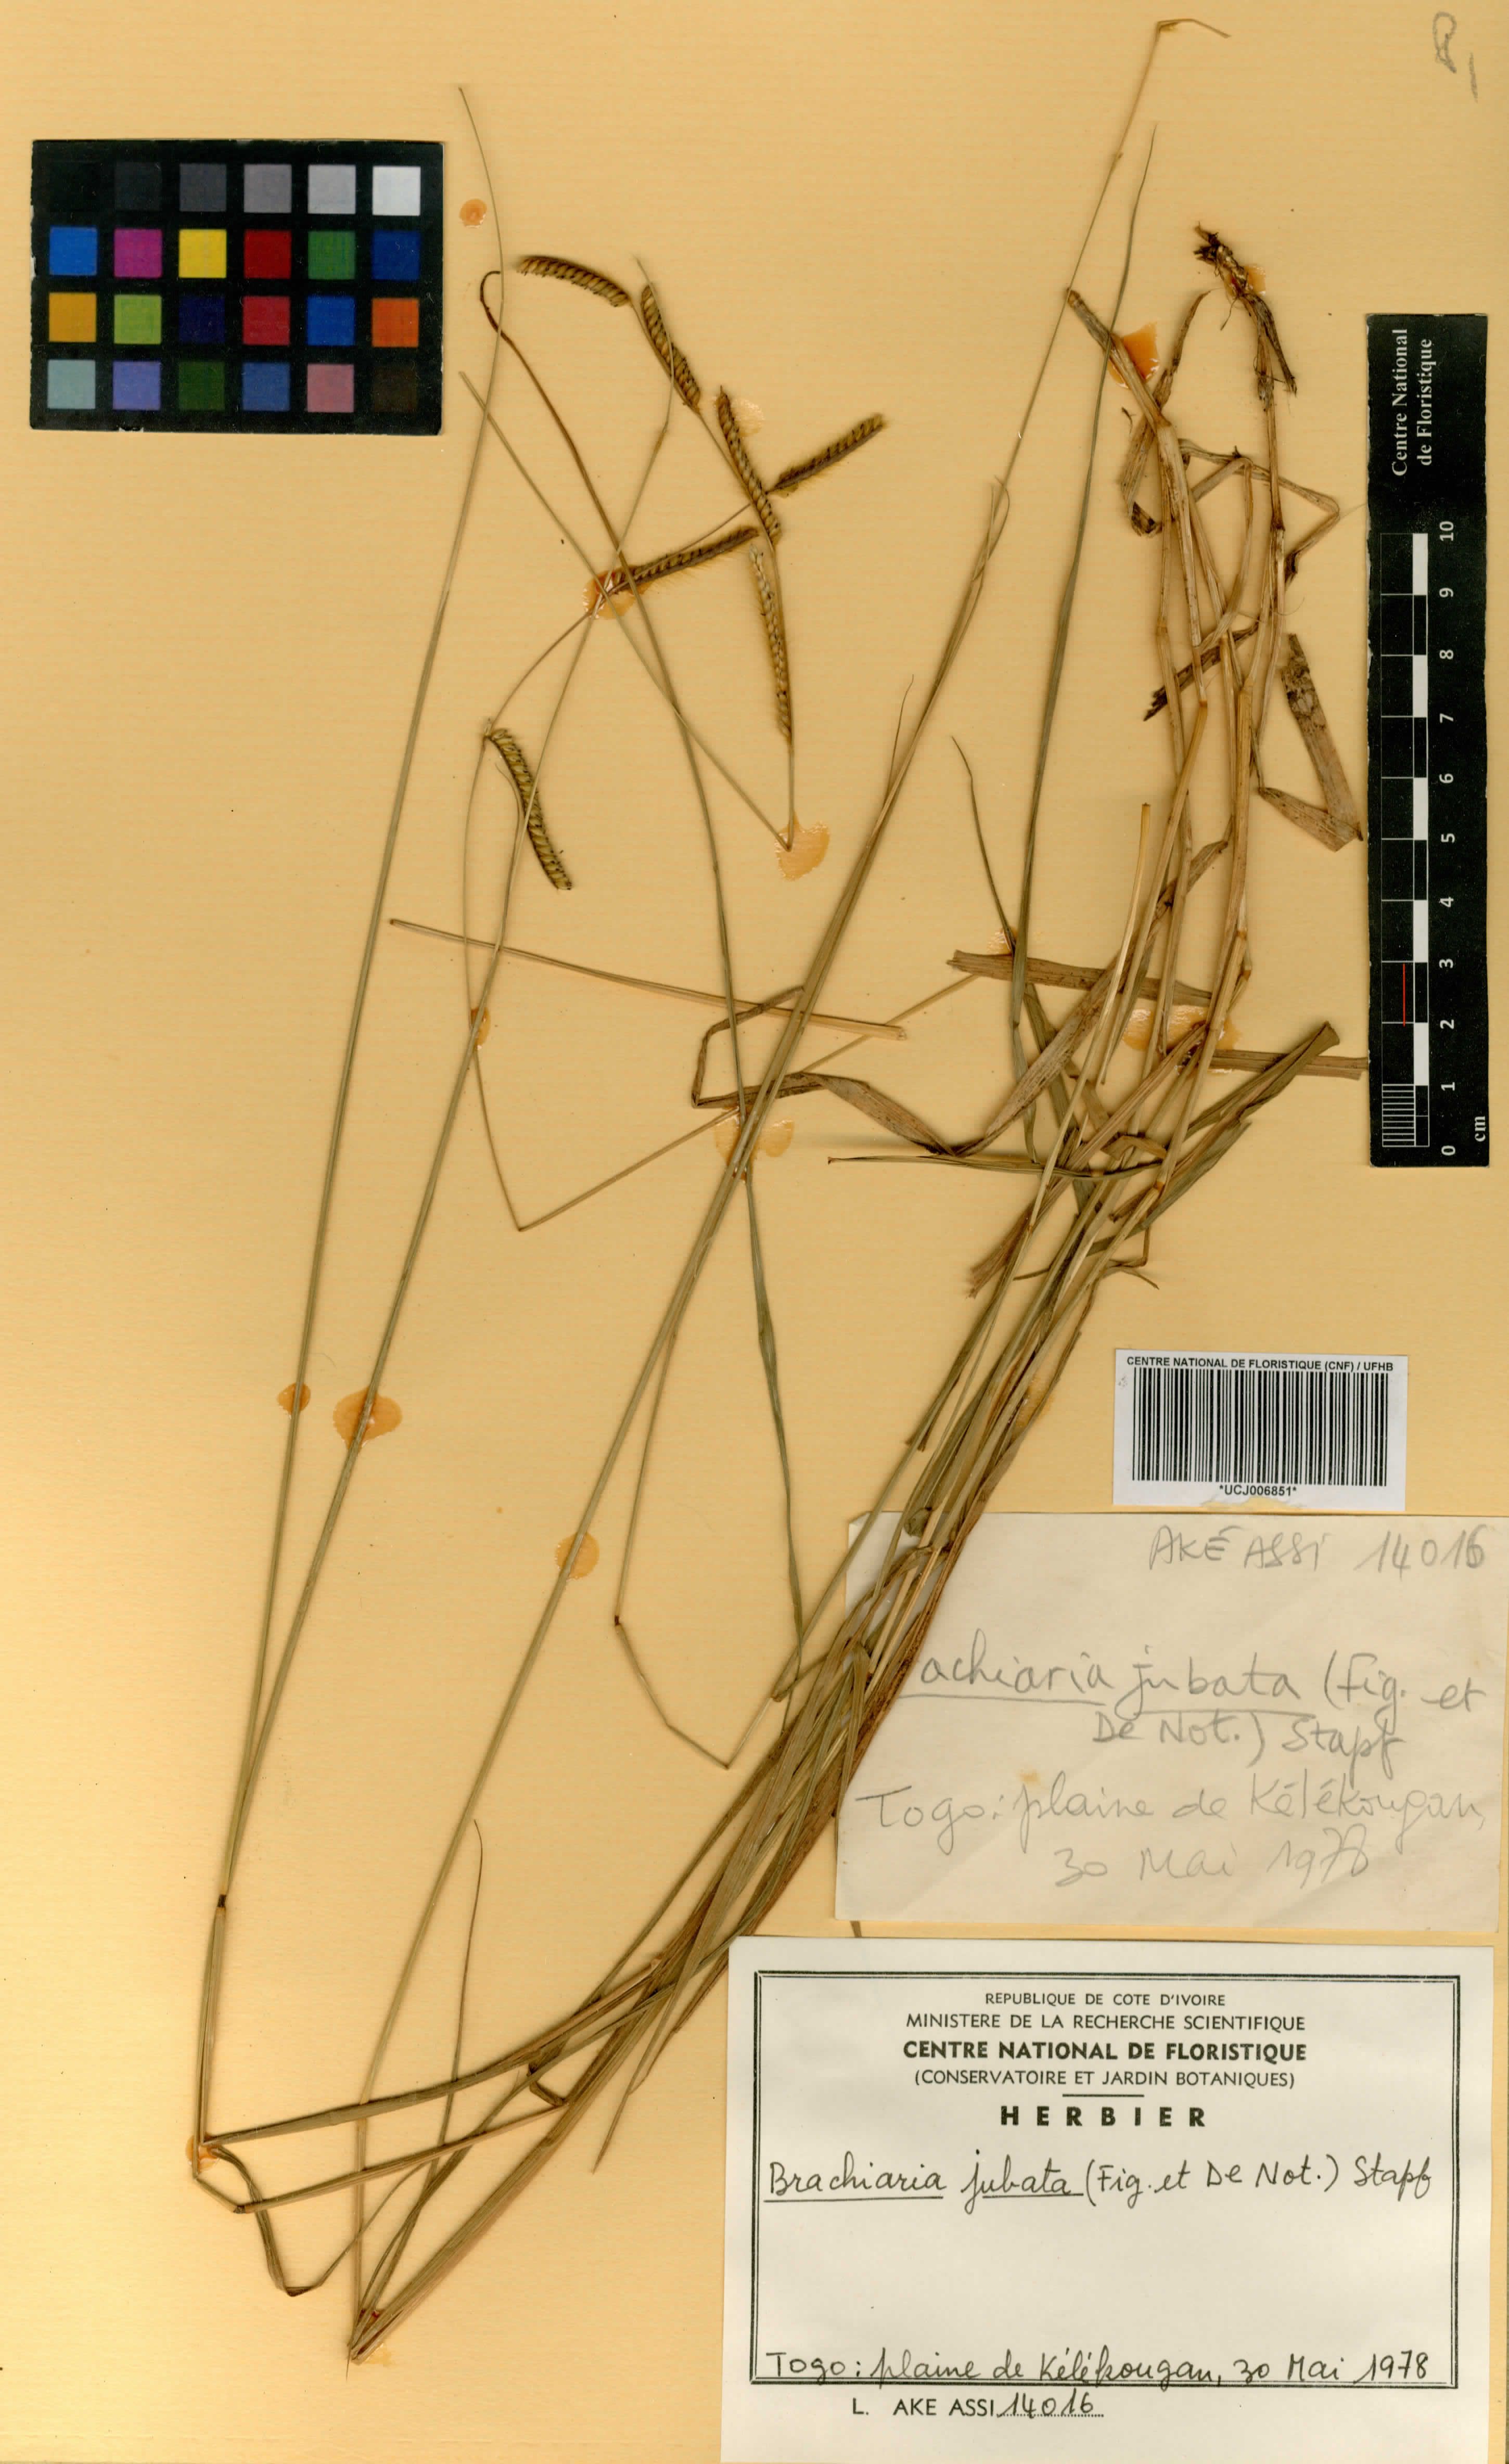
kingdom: Plantae
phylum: Tracheophyta
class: Liliopsida
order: Poales
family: Poaceae
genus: Urochloa
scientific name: Urochloa jubata
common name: Buffalograss
